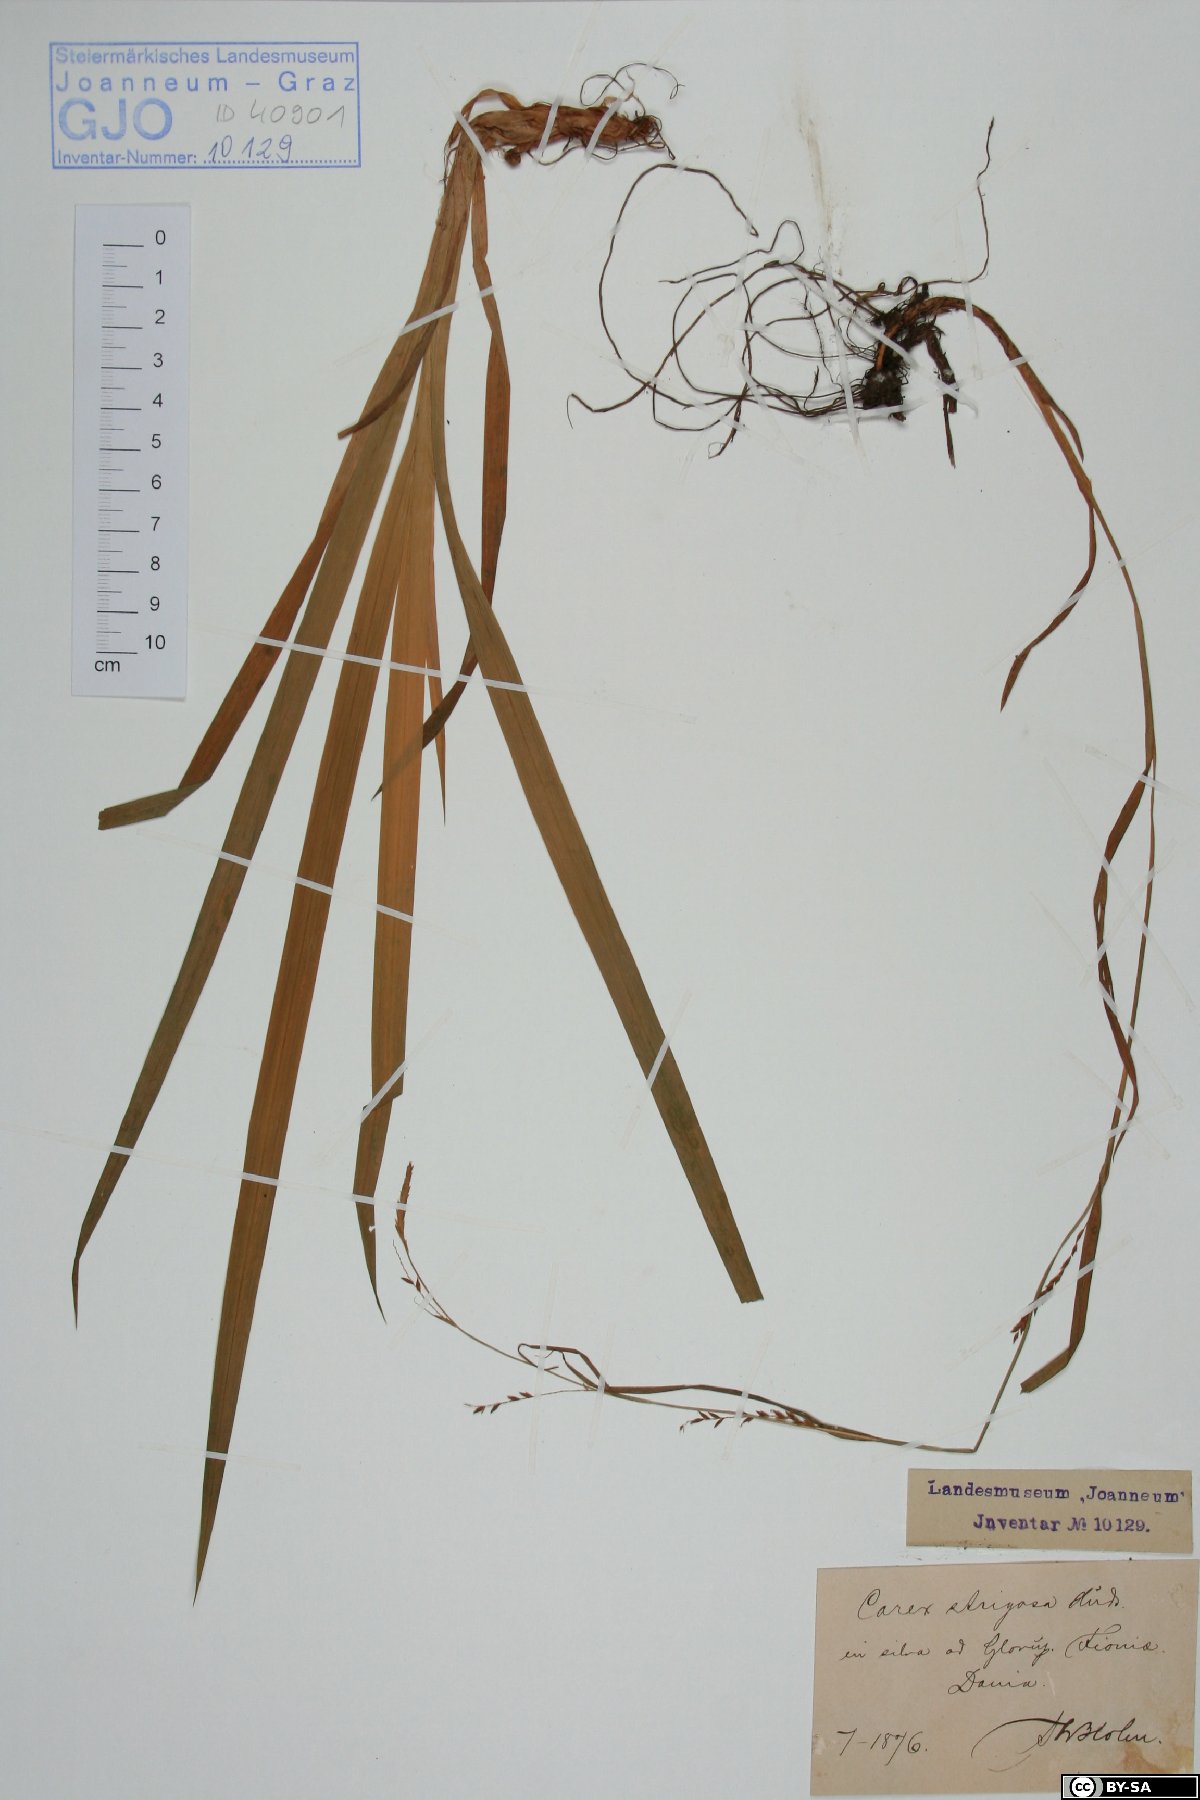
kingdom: Plantae
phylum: Tracheophyta
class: Liliopsida
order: Poales
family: Cyperaceae
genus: Carex
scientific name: Carex strigosa
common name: Thin-spiked wood-sedge
